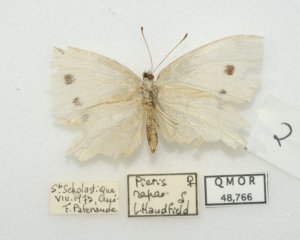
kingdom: Animalia
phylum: Arthropoda
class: Insecta
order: Lepidoptera
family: Pieridae
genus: Pieris
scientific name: Pieris rapae
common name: Cabbage White
